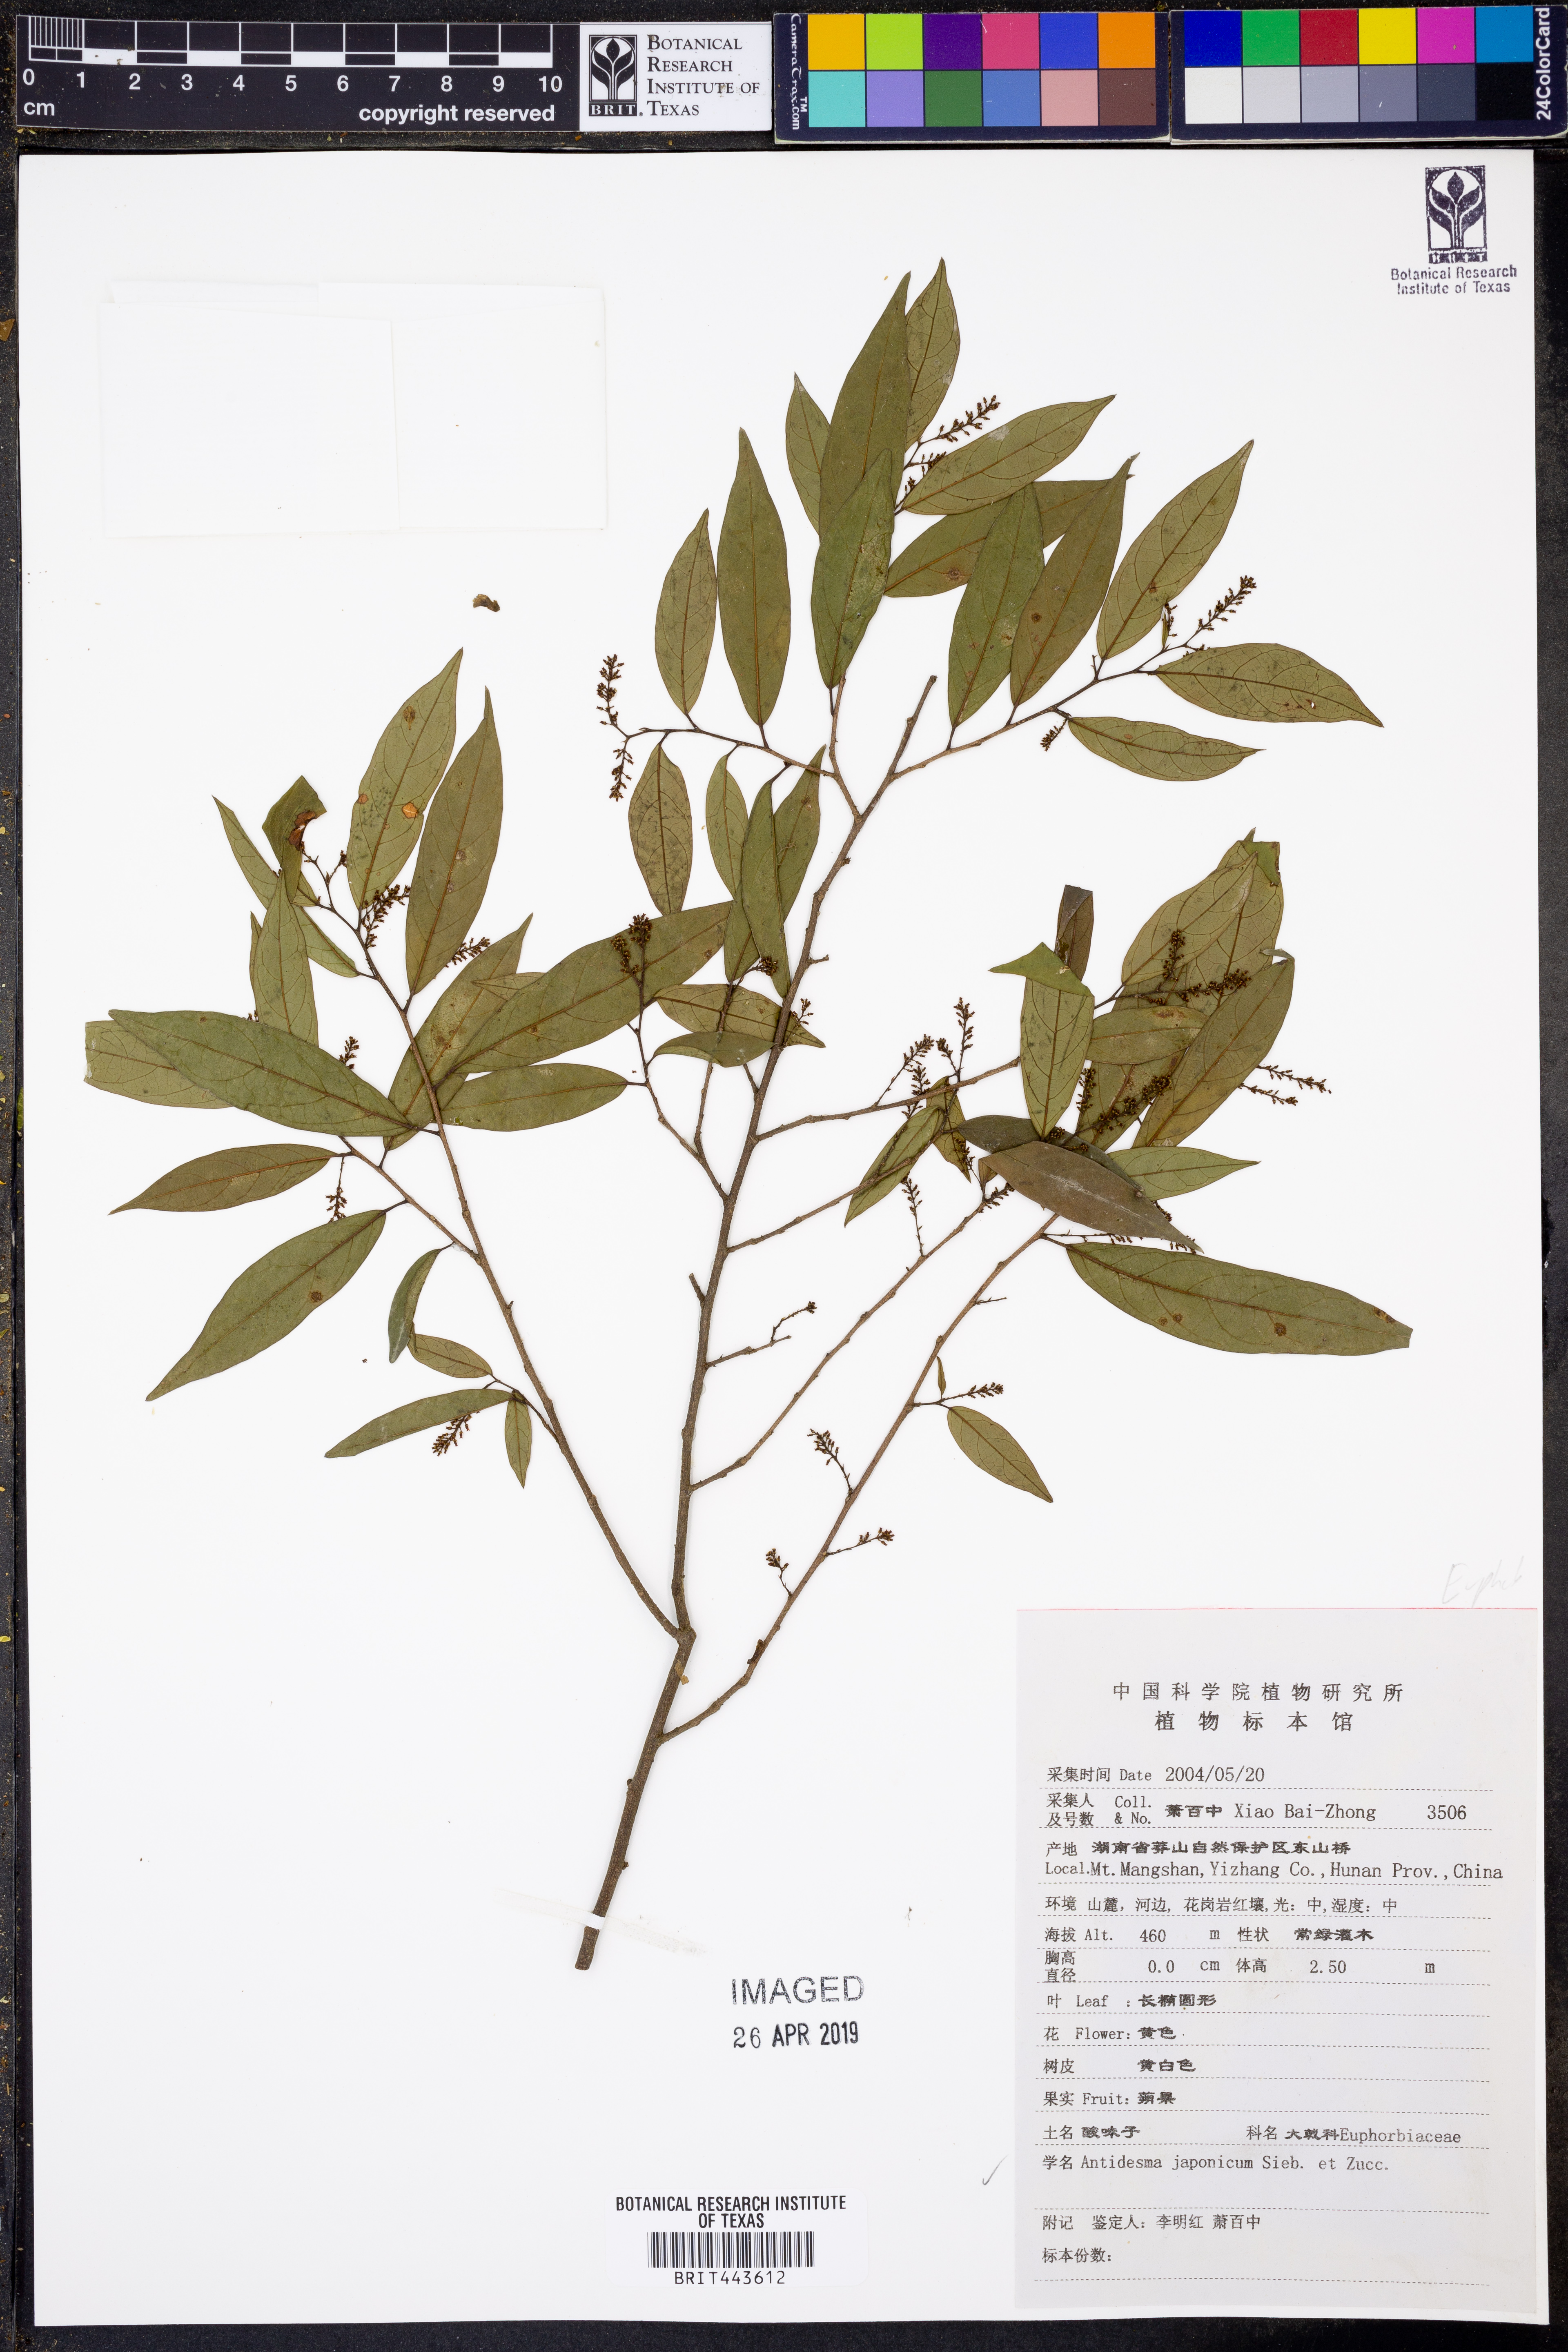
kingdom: Plantae
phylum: Tracheophyta
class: Magnoliopsida
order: Malpighiales
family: Phyllanthaceae
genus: Antidesma
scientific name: Antidesma japonicum
